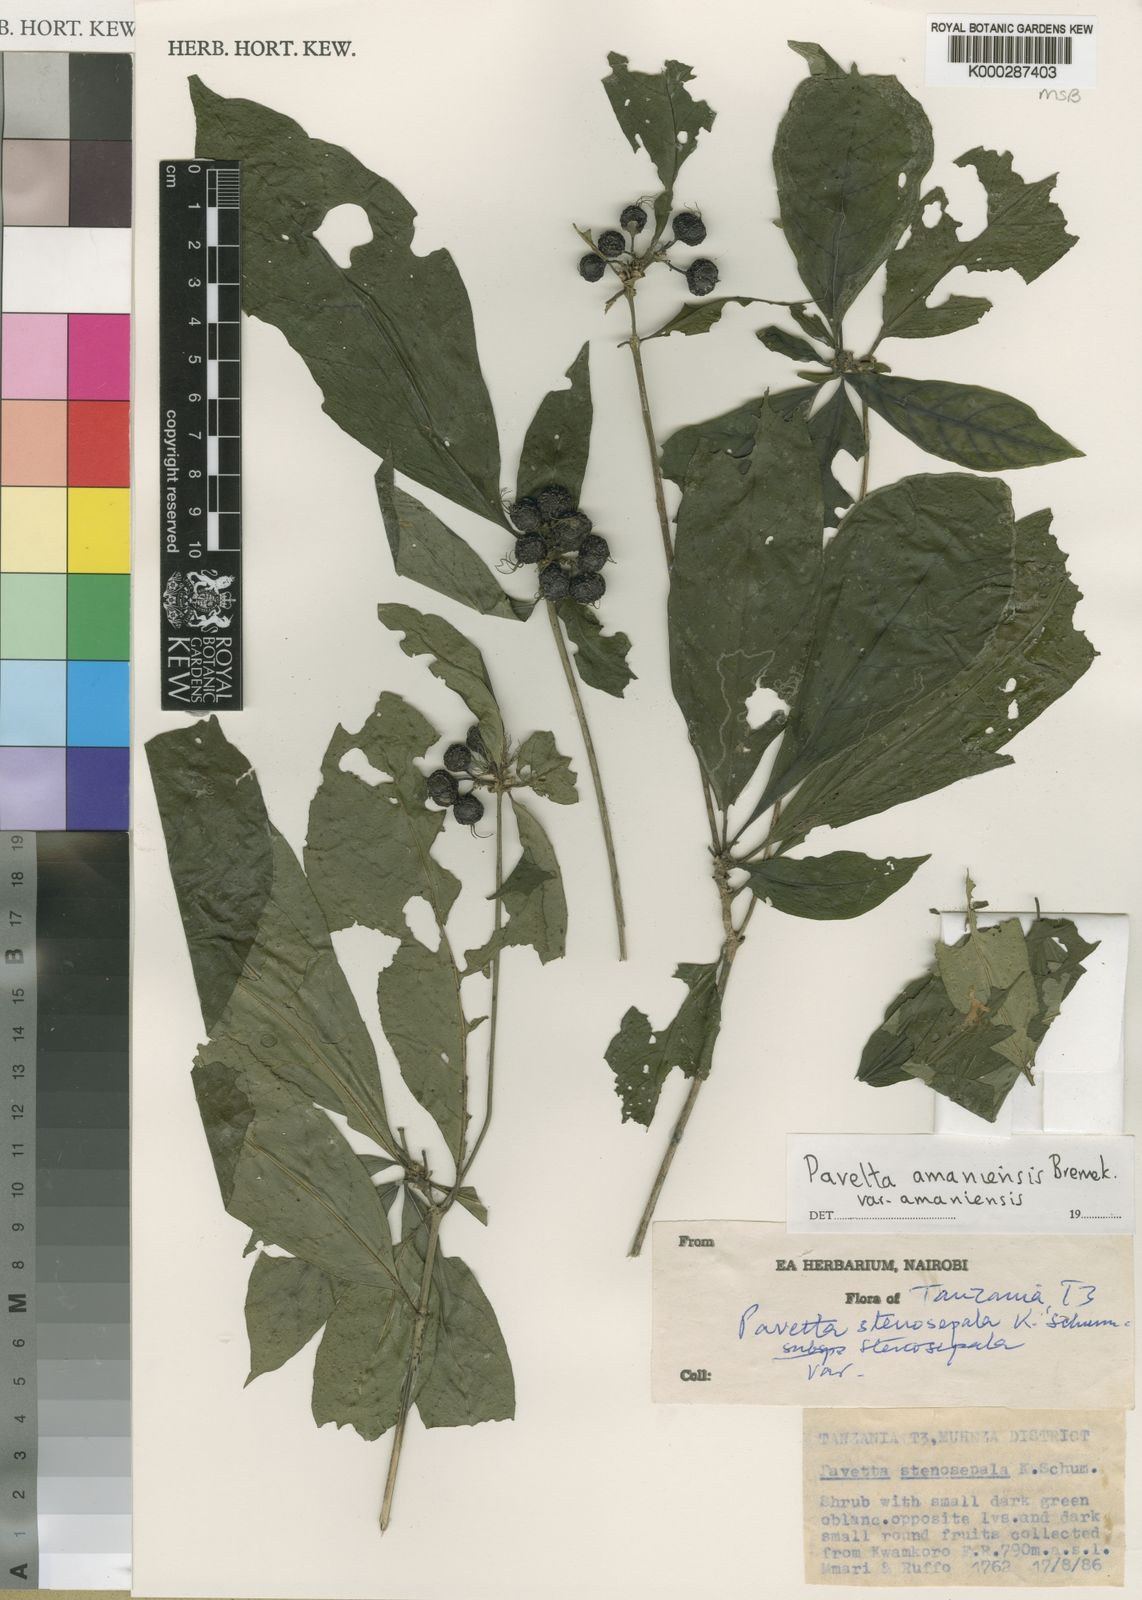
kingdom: Plantae
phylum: Tracheophyta
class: Magnoliopsida
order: Gentianales
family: Rubiaceae
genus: Pavetta
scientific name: Pavetta amaniensis
